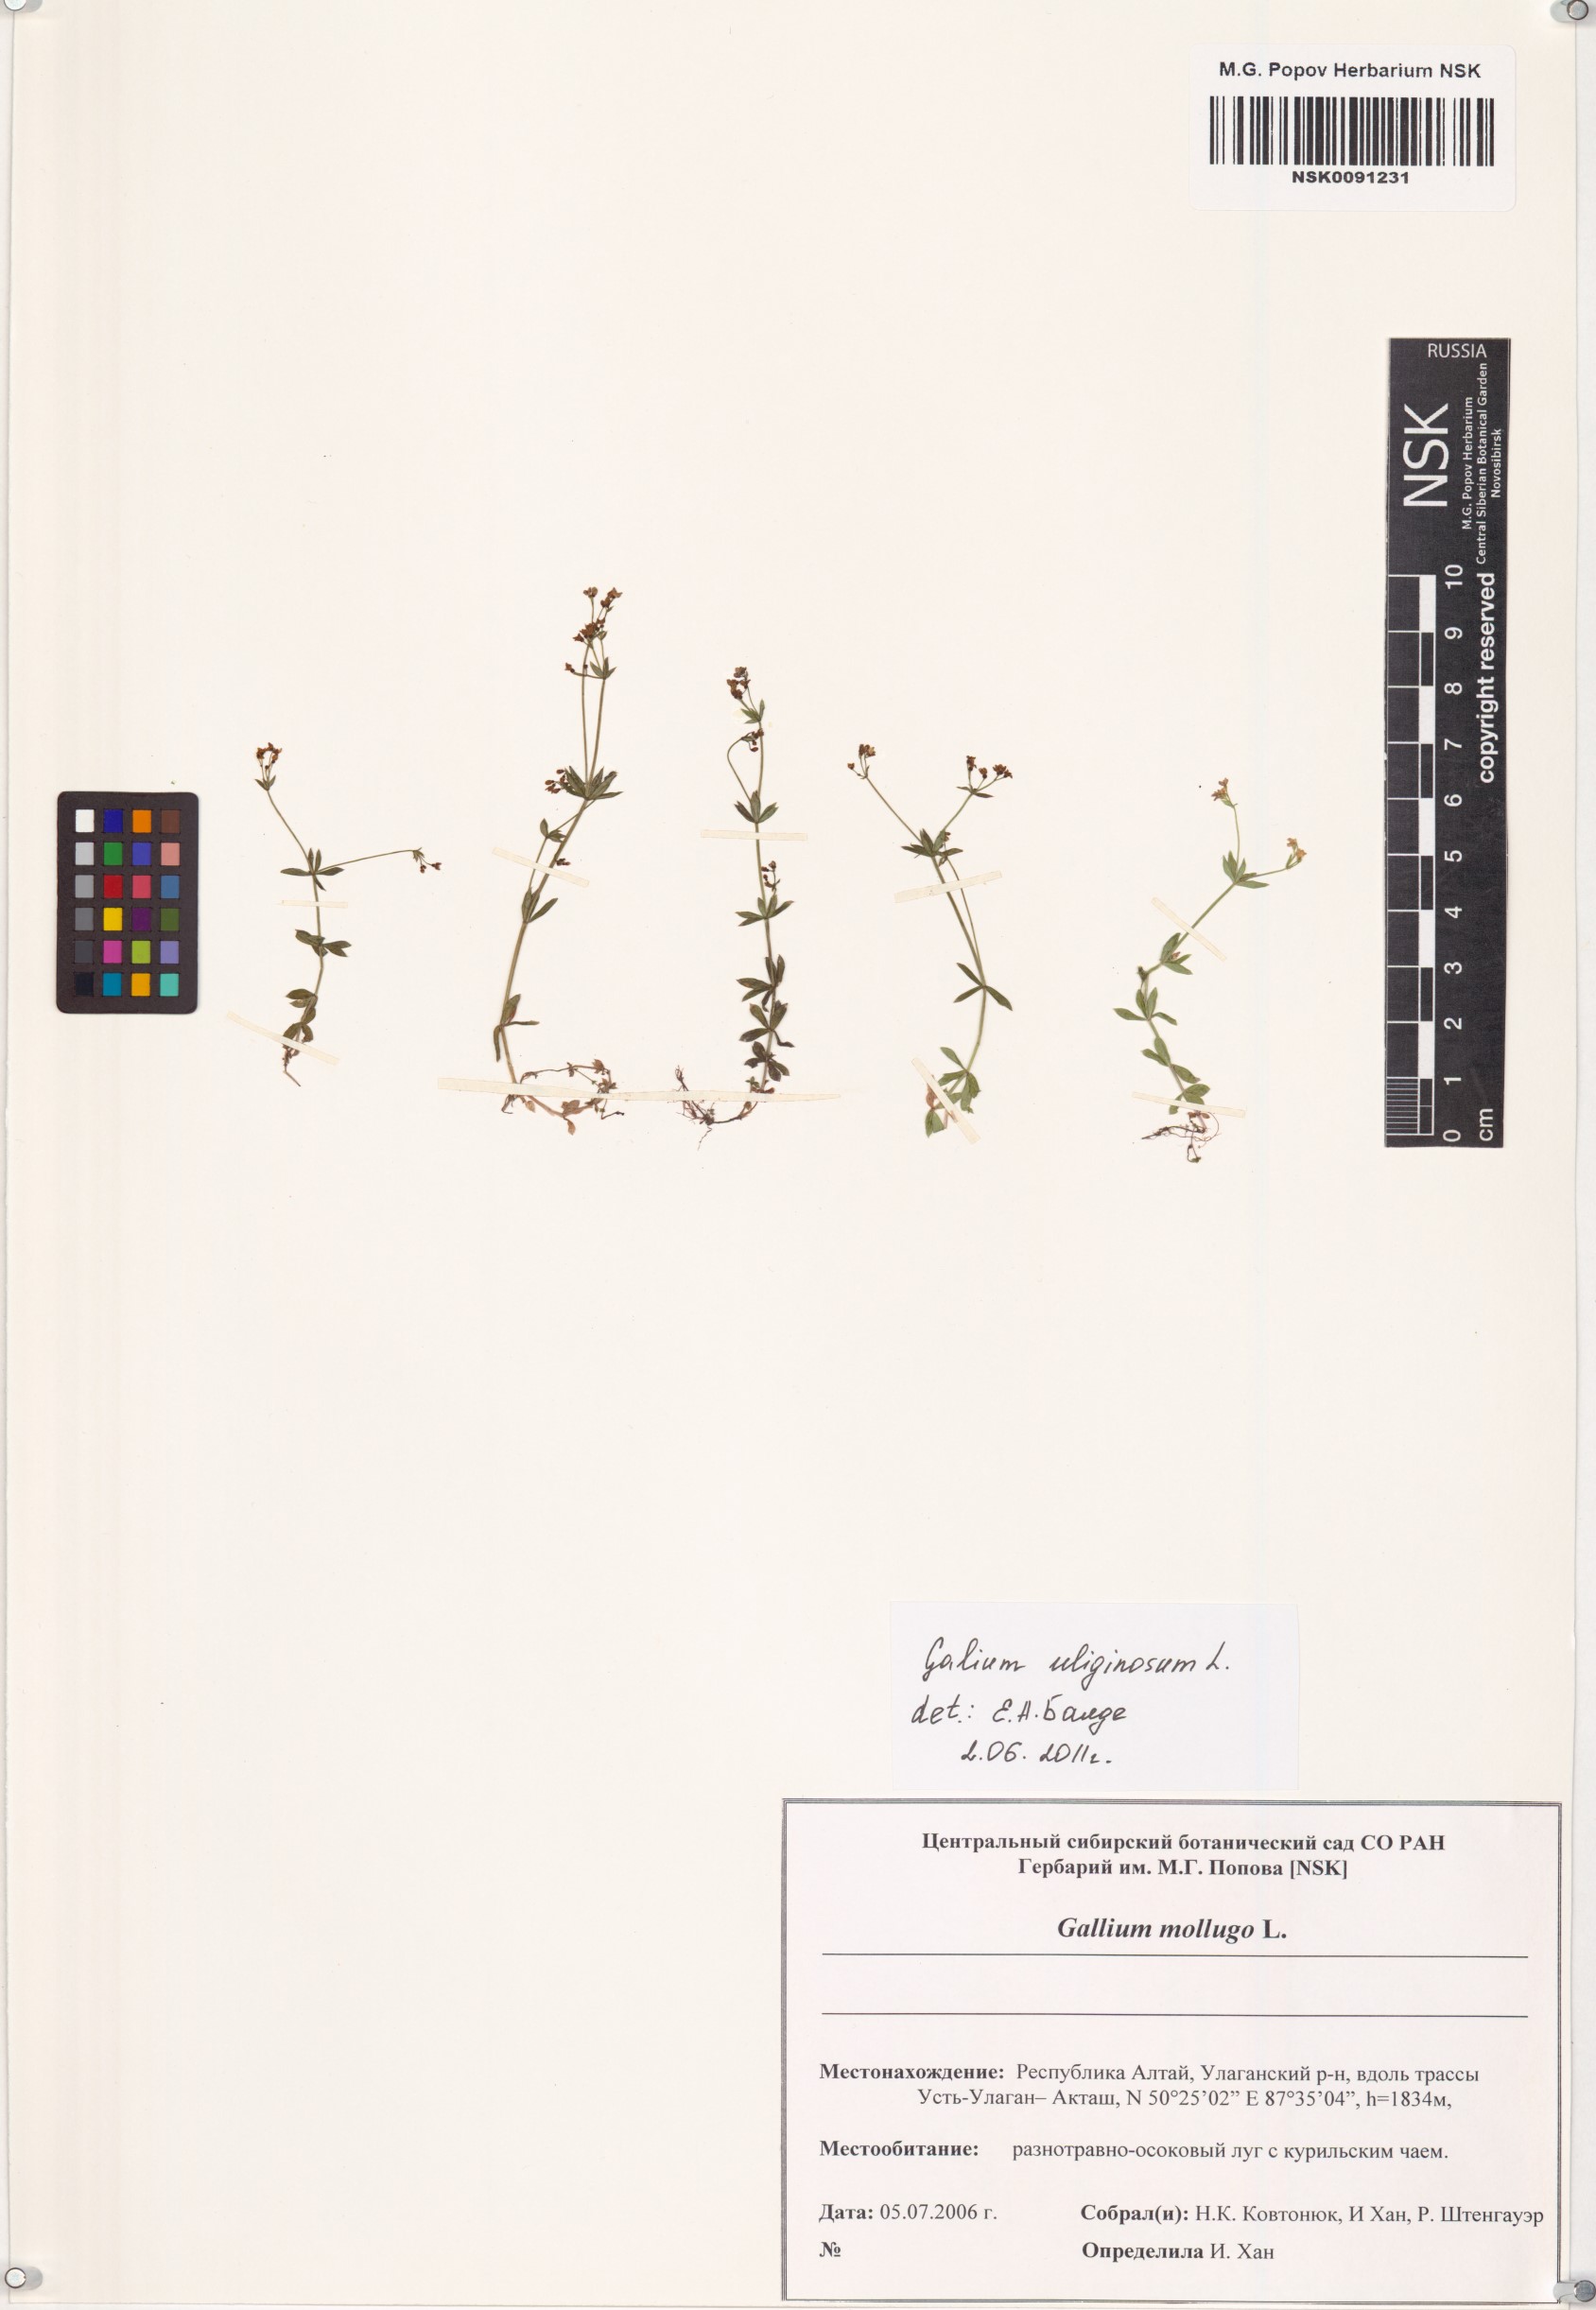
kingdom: Plantae
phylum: Tracheophyta
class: Magnoliopsida
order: Gentianales
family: Rubiaceae
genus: Galium
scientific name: Galium uliginosum
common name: Fen bedstraw
